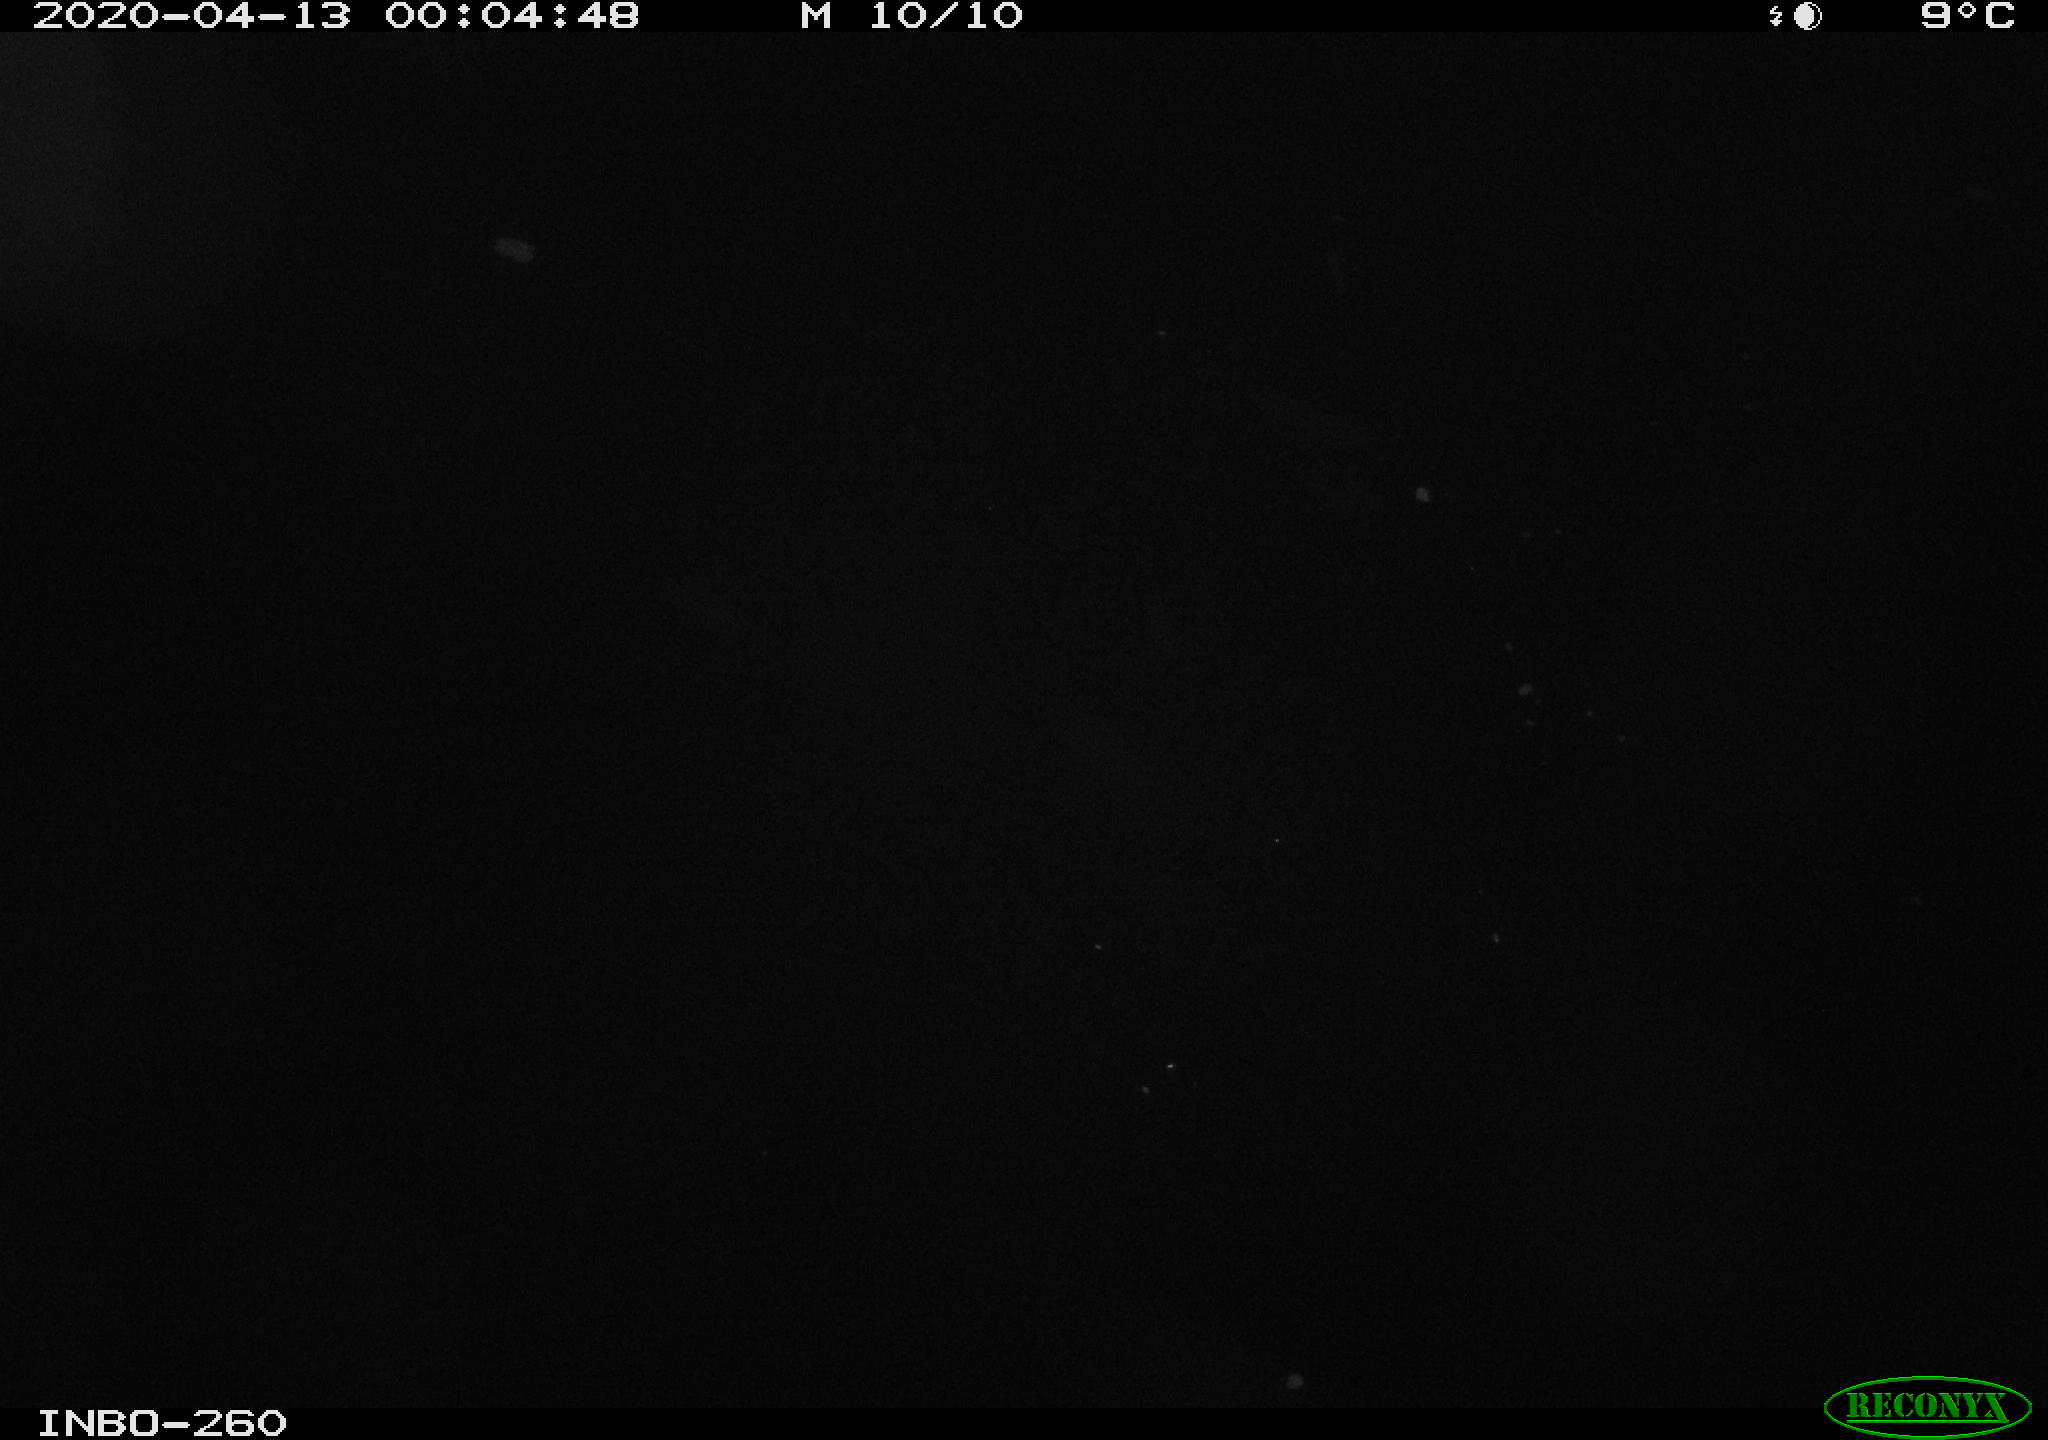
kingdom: Animalia
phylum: Chordata
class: Aves
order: Anseriformes
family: Anatidae
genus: Anas
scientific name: Anas platyrhynchos
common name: Mallard
